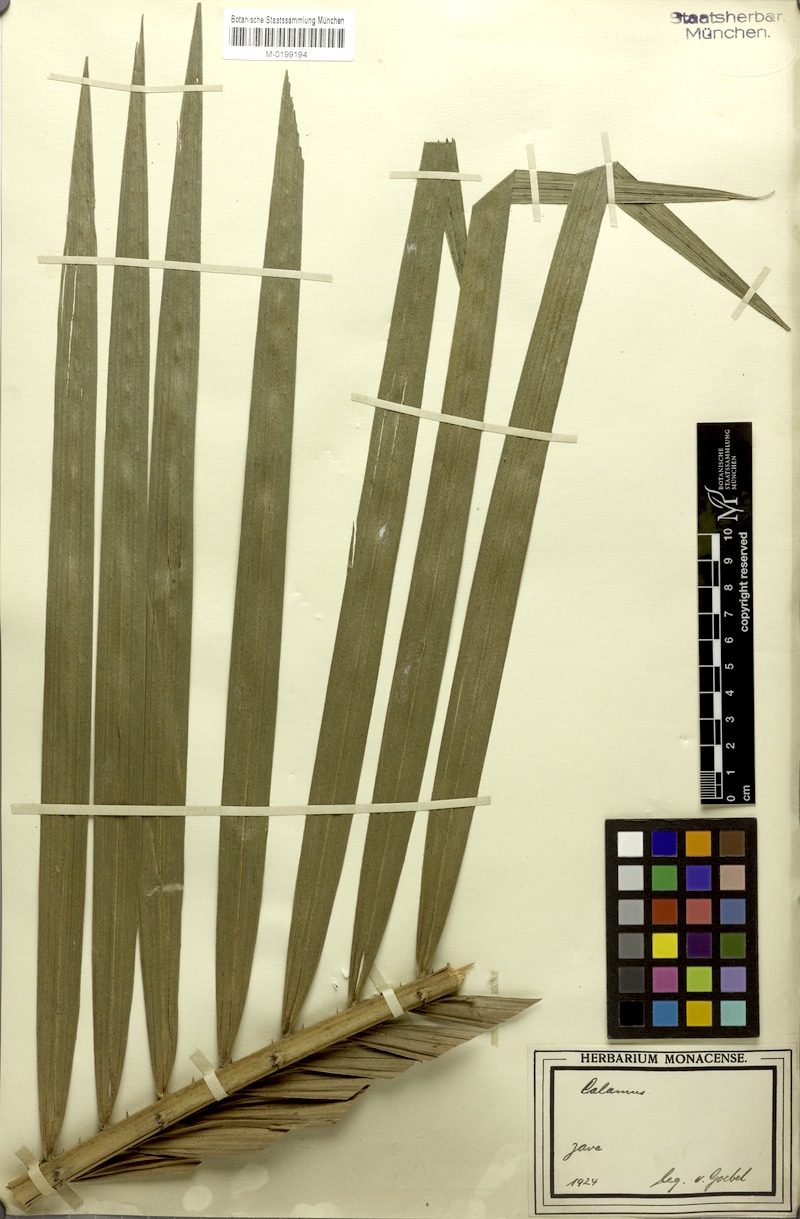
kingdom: Plantae
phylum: Tracheophyta
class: Liliopsida
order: Arecales
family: Arecaceae
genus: Calamus
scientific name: Calamus
